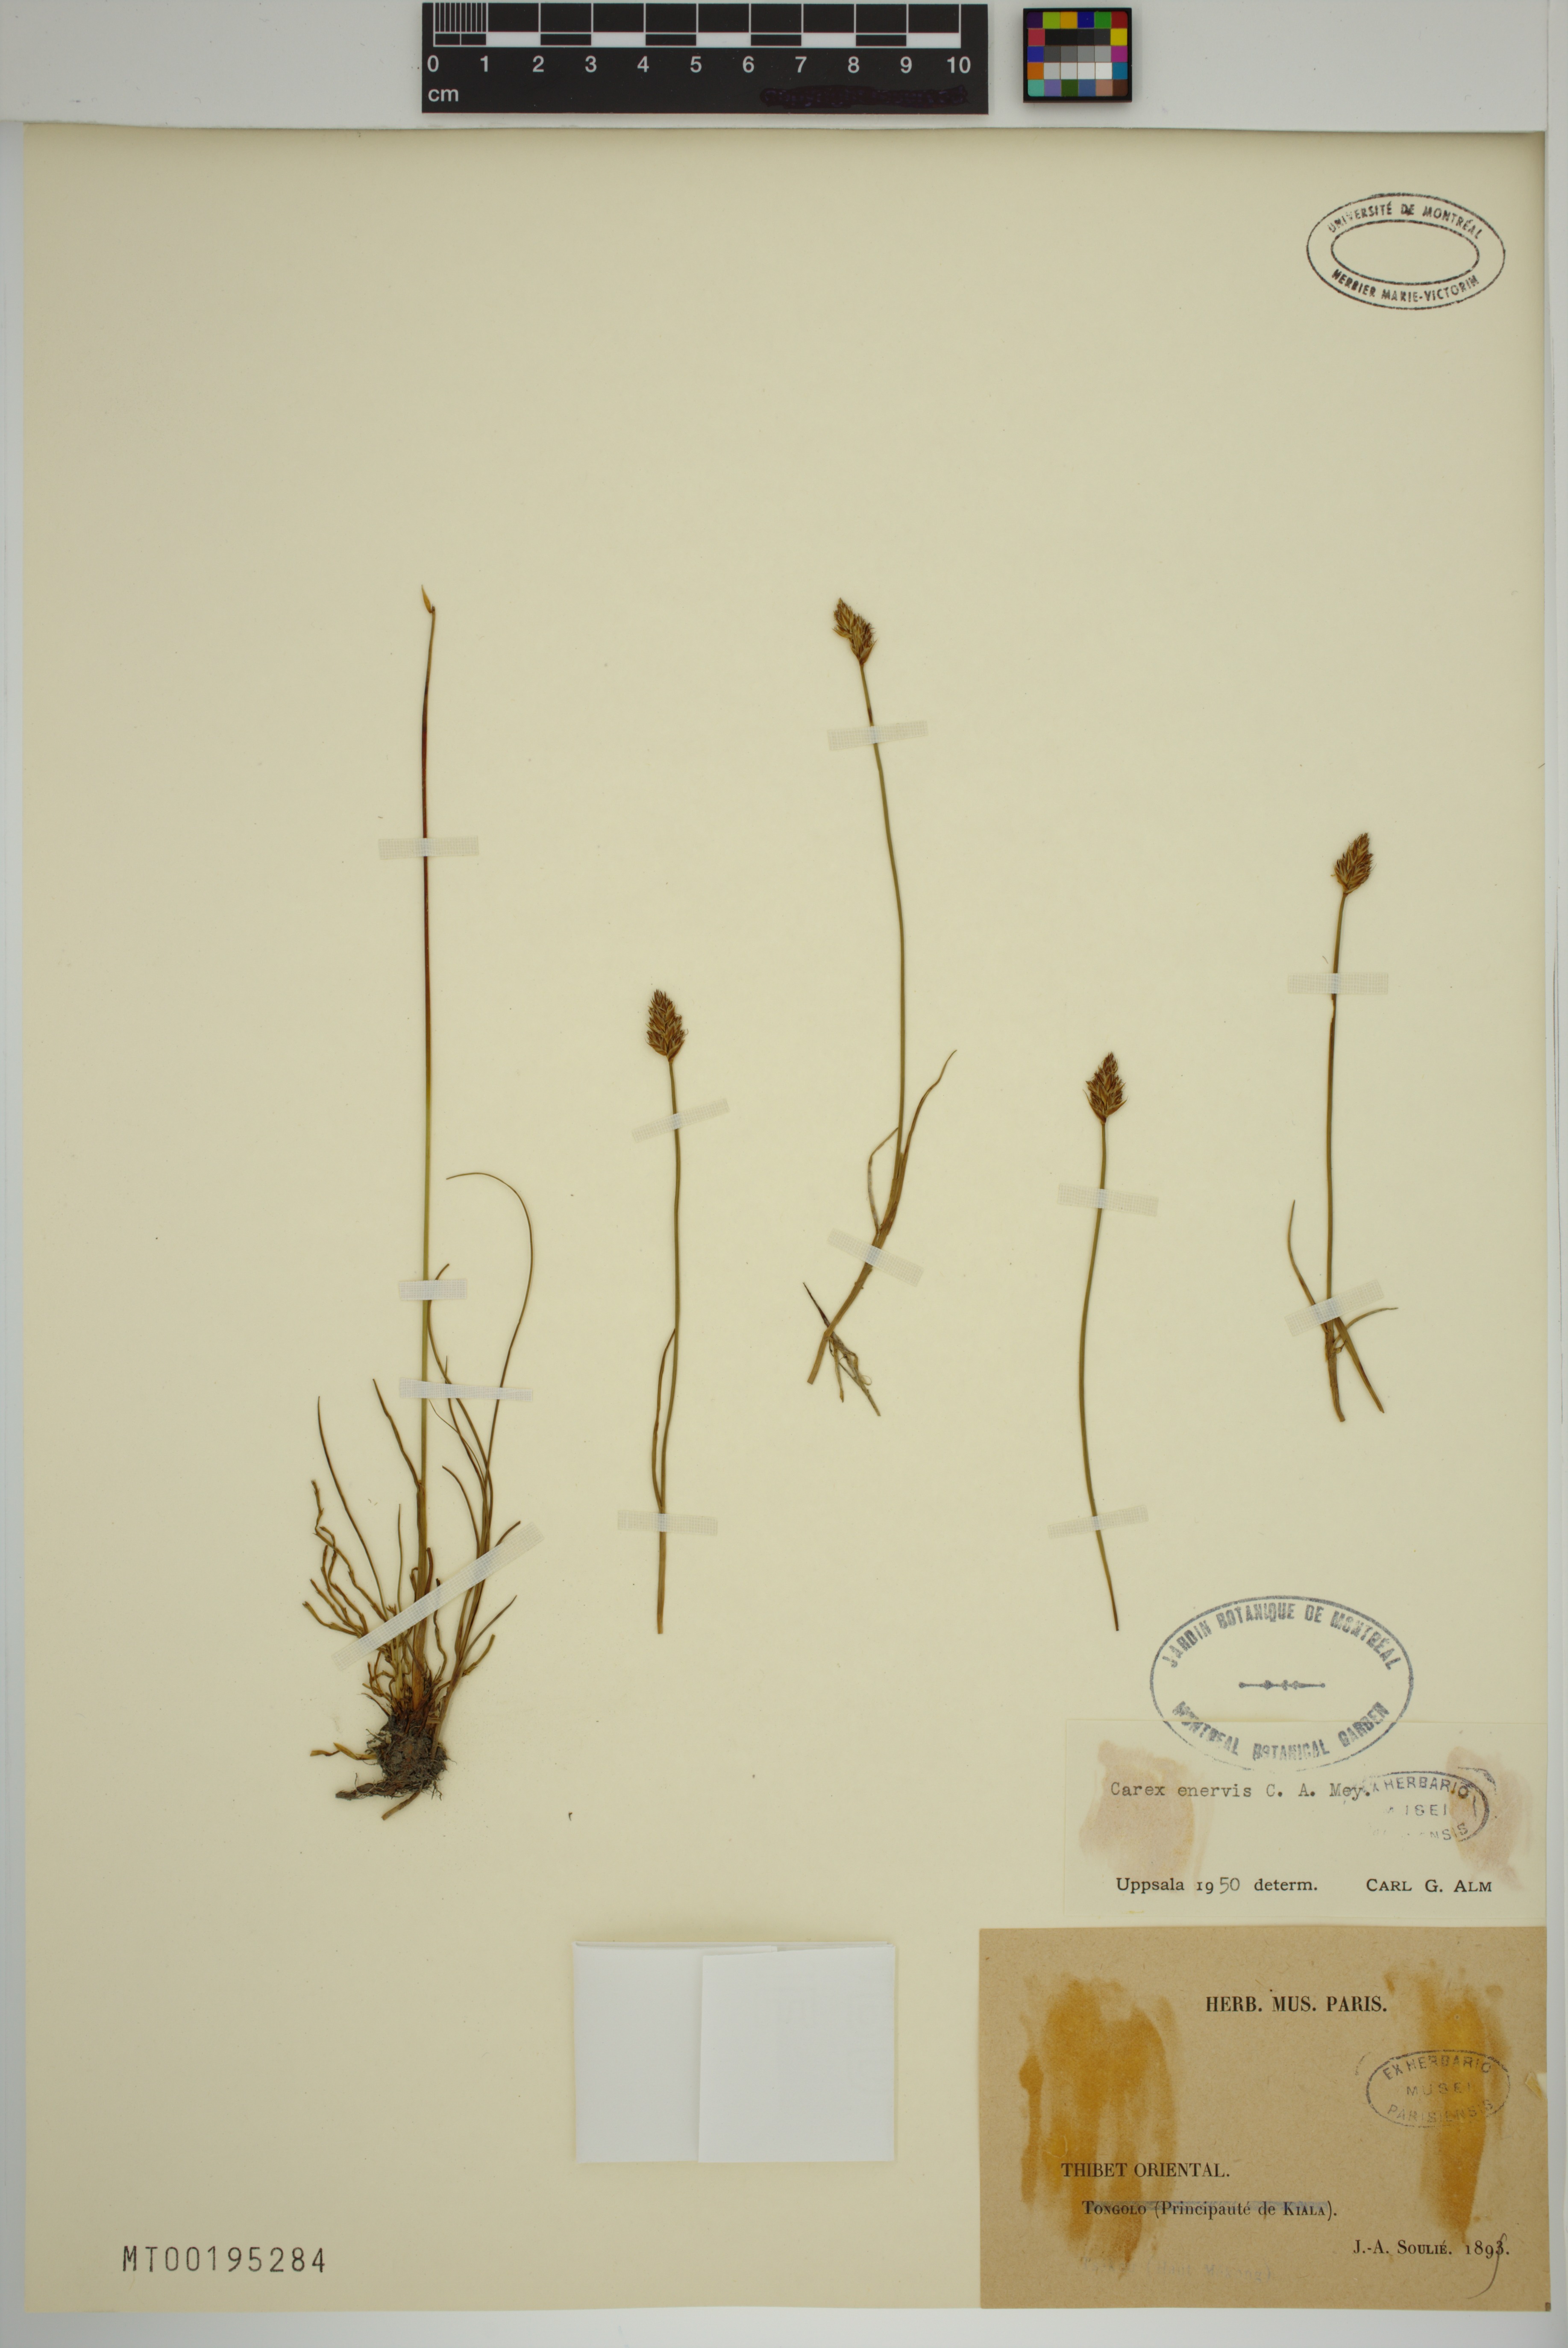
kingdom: Plantae
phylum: Tracheophyta
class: Liliopsida
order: Poales
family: Cyperaceae
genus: Carex
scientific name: Carex enervis
